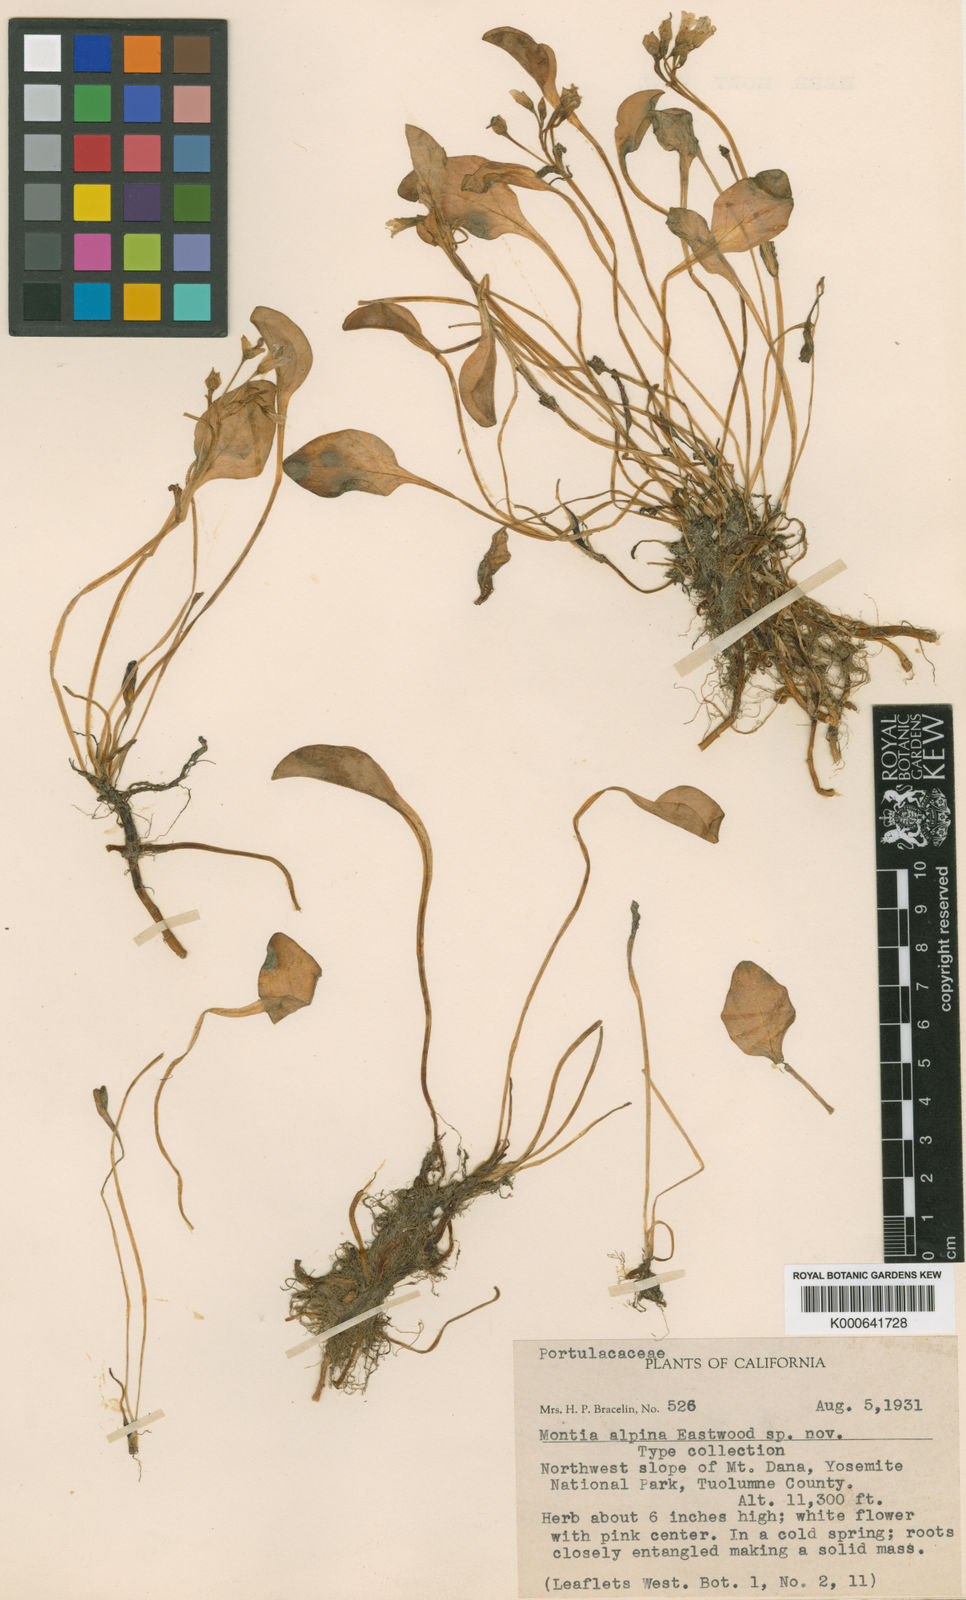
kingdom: Plantae
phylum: Tracheophyta
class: Magnoliopsida
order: Caryophyllales
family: Montiaceae
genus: Montia
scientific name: Montia
